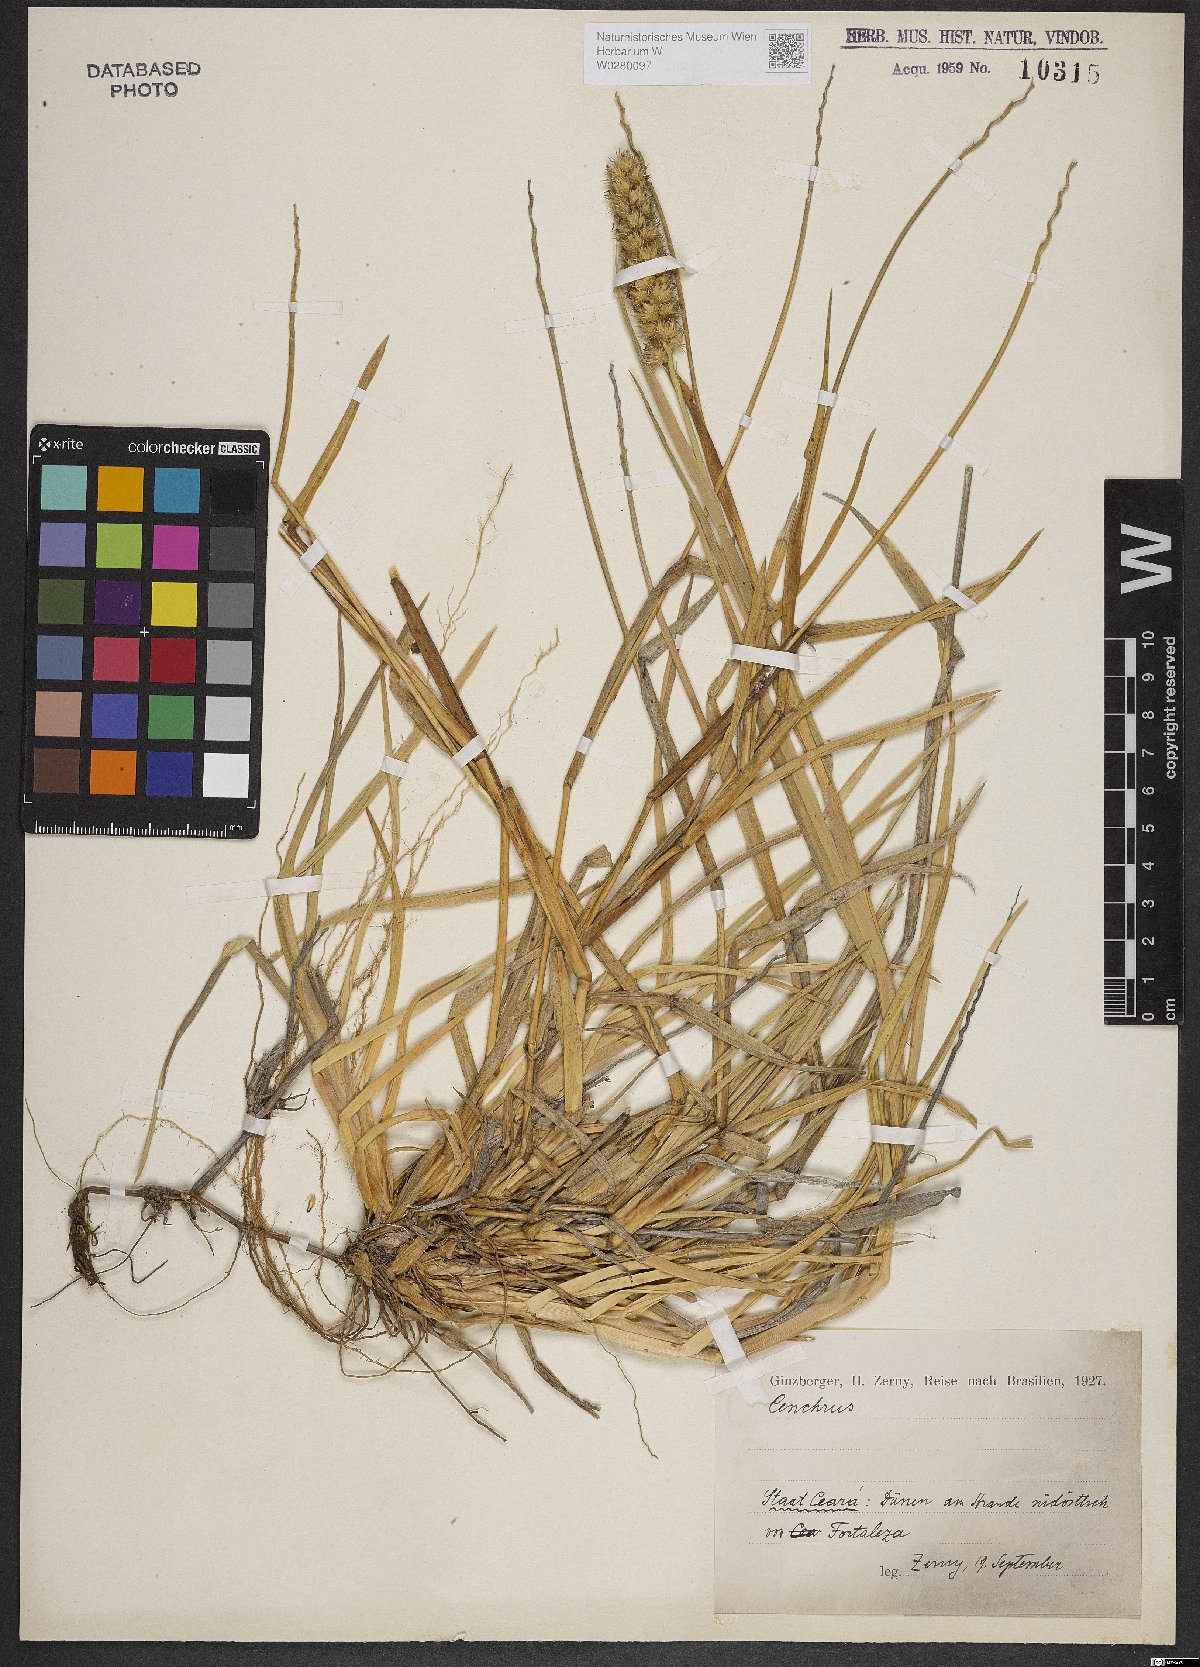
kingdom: Plantae
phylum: Tracheophyta
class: Liliopsida
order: Poales
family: Poaceae
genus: Cenchrus
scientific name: Cenchrus
